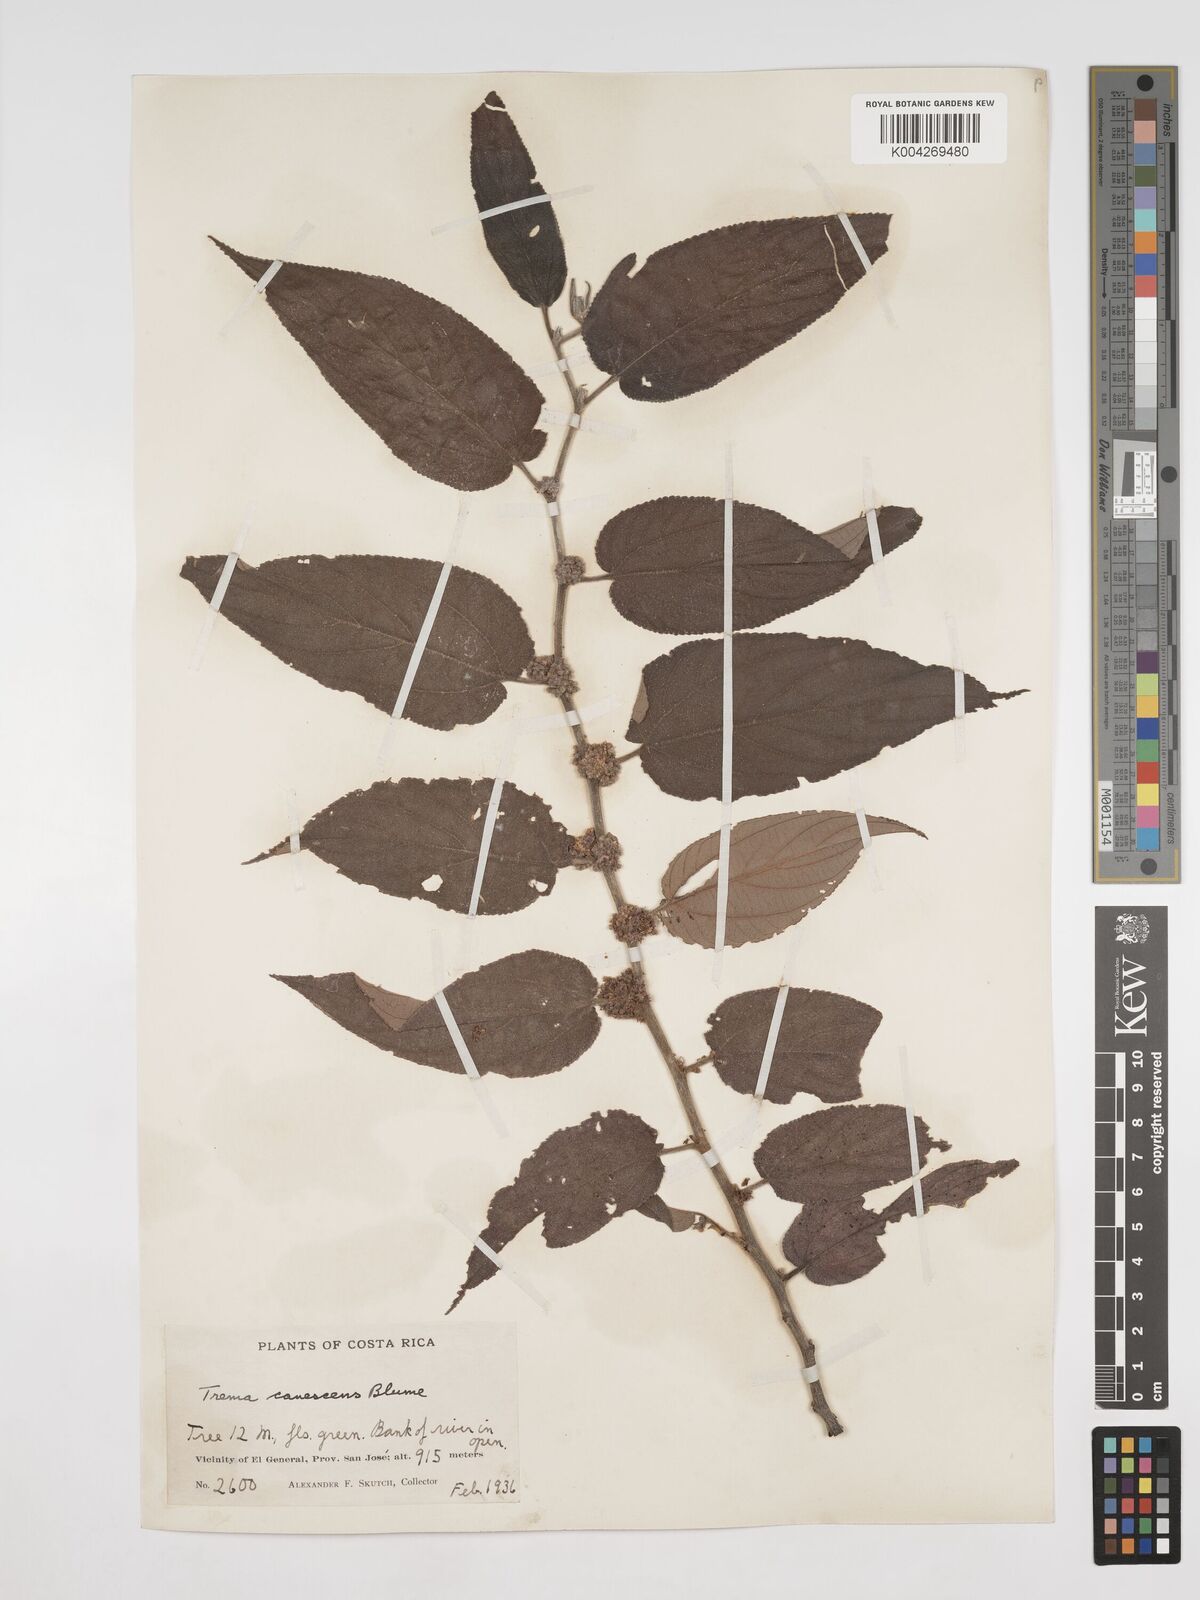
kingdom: Plantae
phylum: Tracheophyta
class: Magnoliopsida
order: Rosales
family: Cannabaceae
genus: Trema
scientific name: Trema micranthum
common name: Jamaican nettletree
